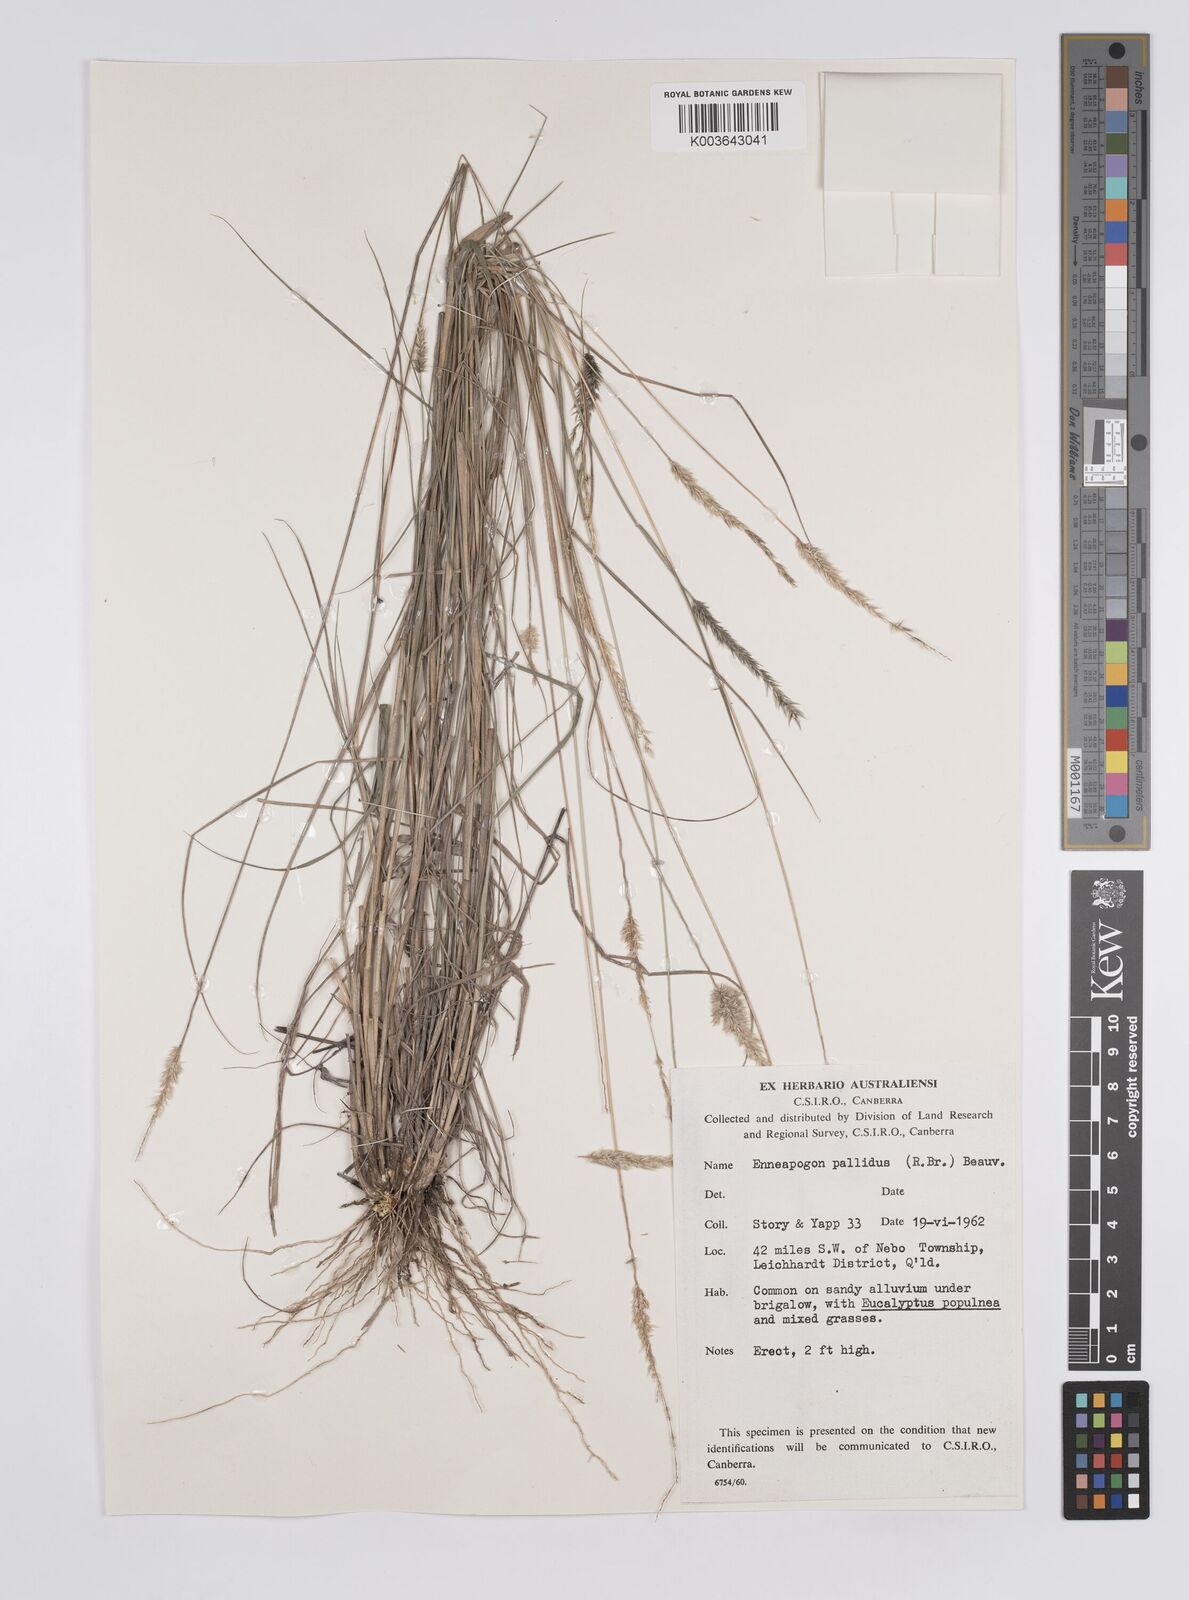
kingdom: Plantae
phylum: Tracheophyta
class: Liliopsida
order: Poales
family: Poaceae
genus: Enneapogon
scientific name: Enneapogon pallidus
